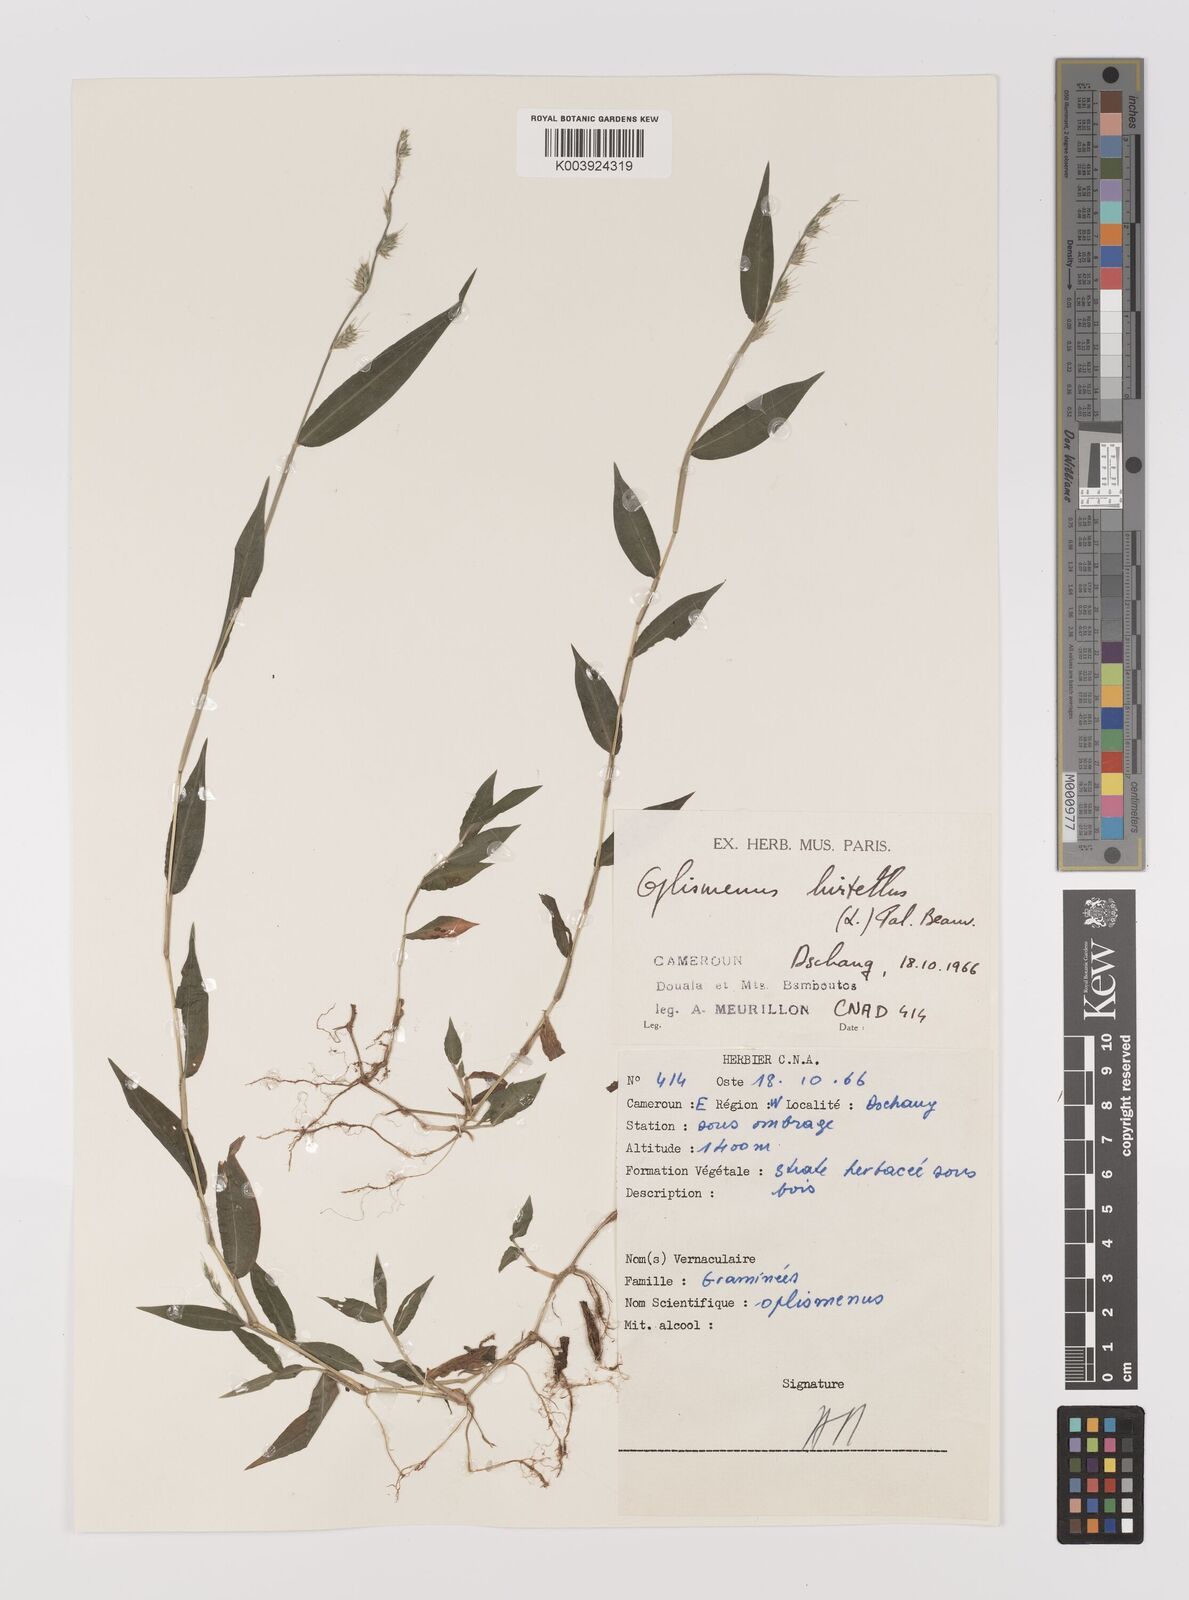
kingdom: Plantae
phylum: Tracheophyta
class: Liliopsida
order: Poales
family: Poaceae
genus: Oplismenus
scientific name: Oplismenus hirtellus
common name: Basketgrass
